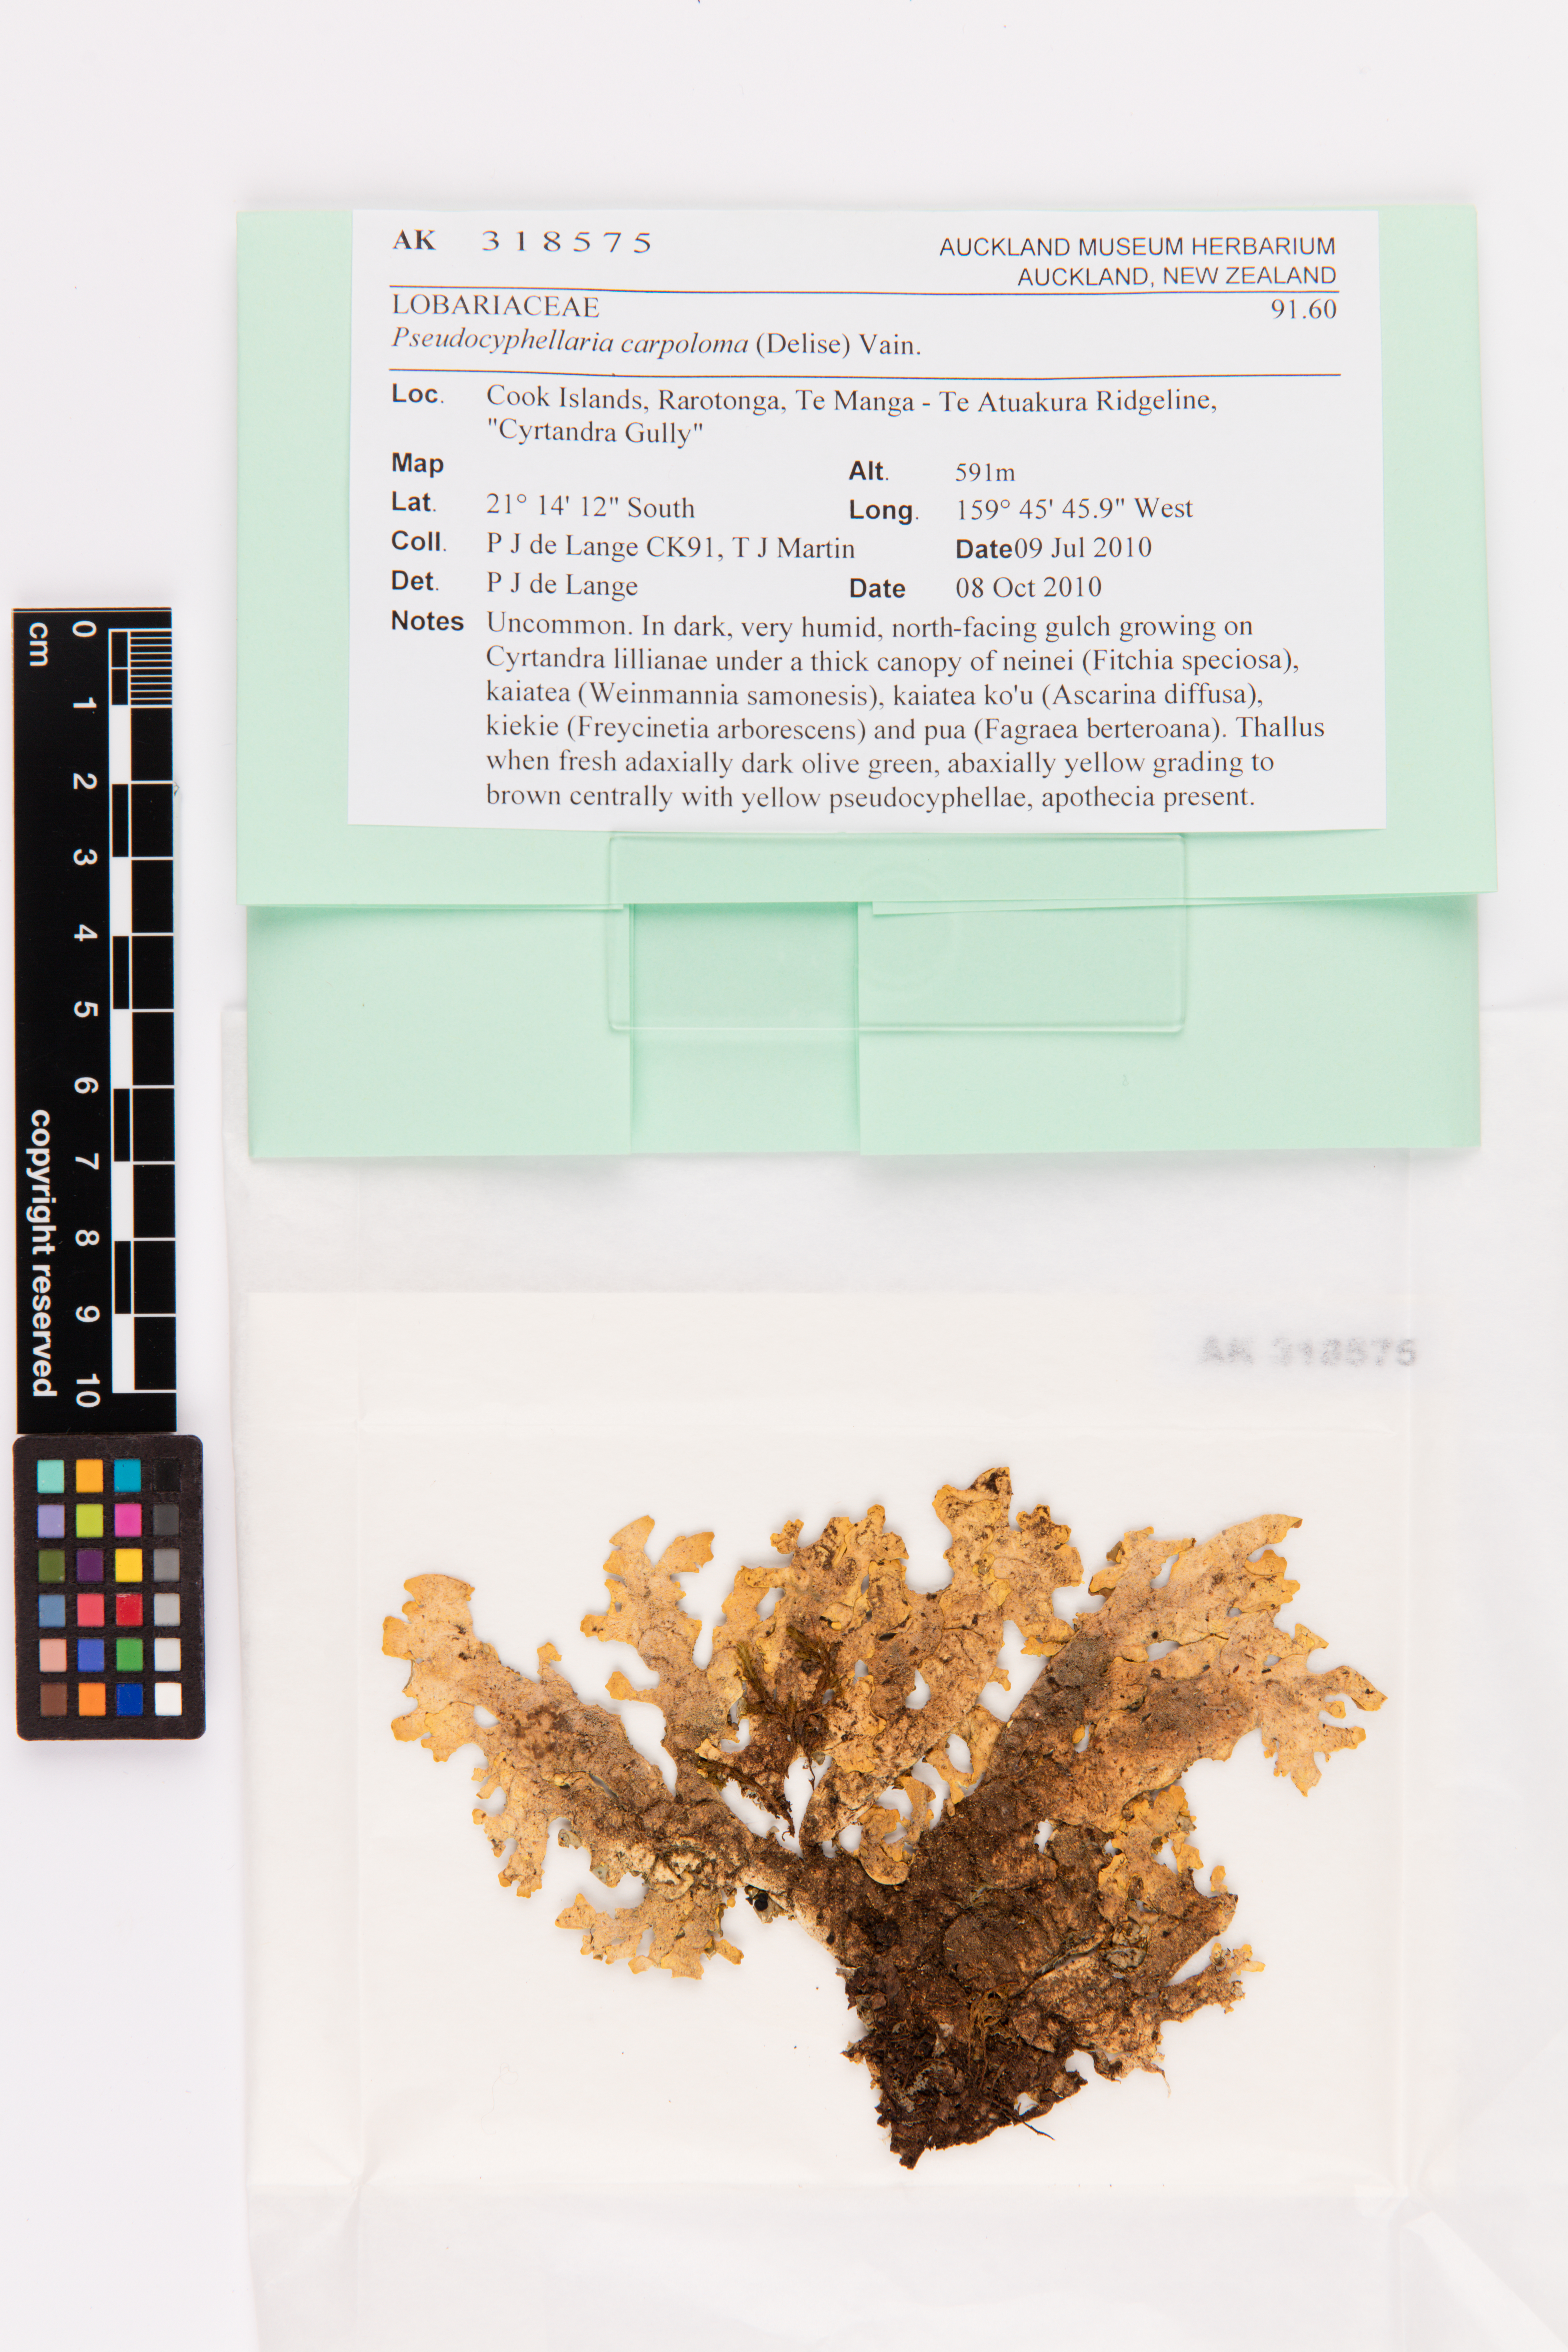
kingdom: Fungi
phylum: Ascomycota
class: Lecanoromycetes
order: Peltigerales
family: Lobariaceae
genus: Pseudocyphellaria
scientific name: Pseudocyphellaria carpoloma
